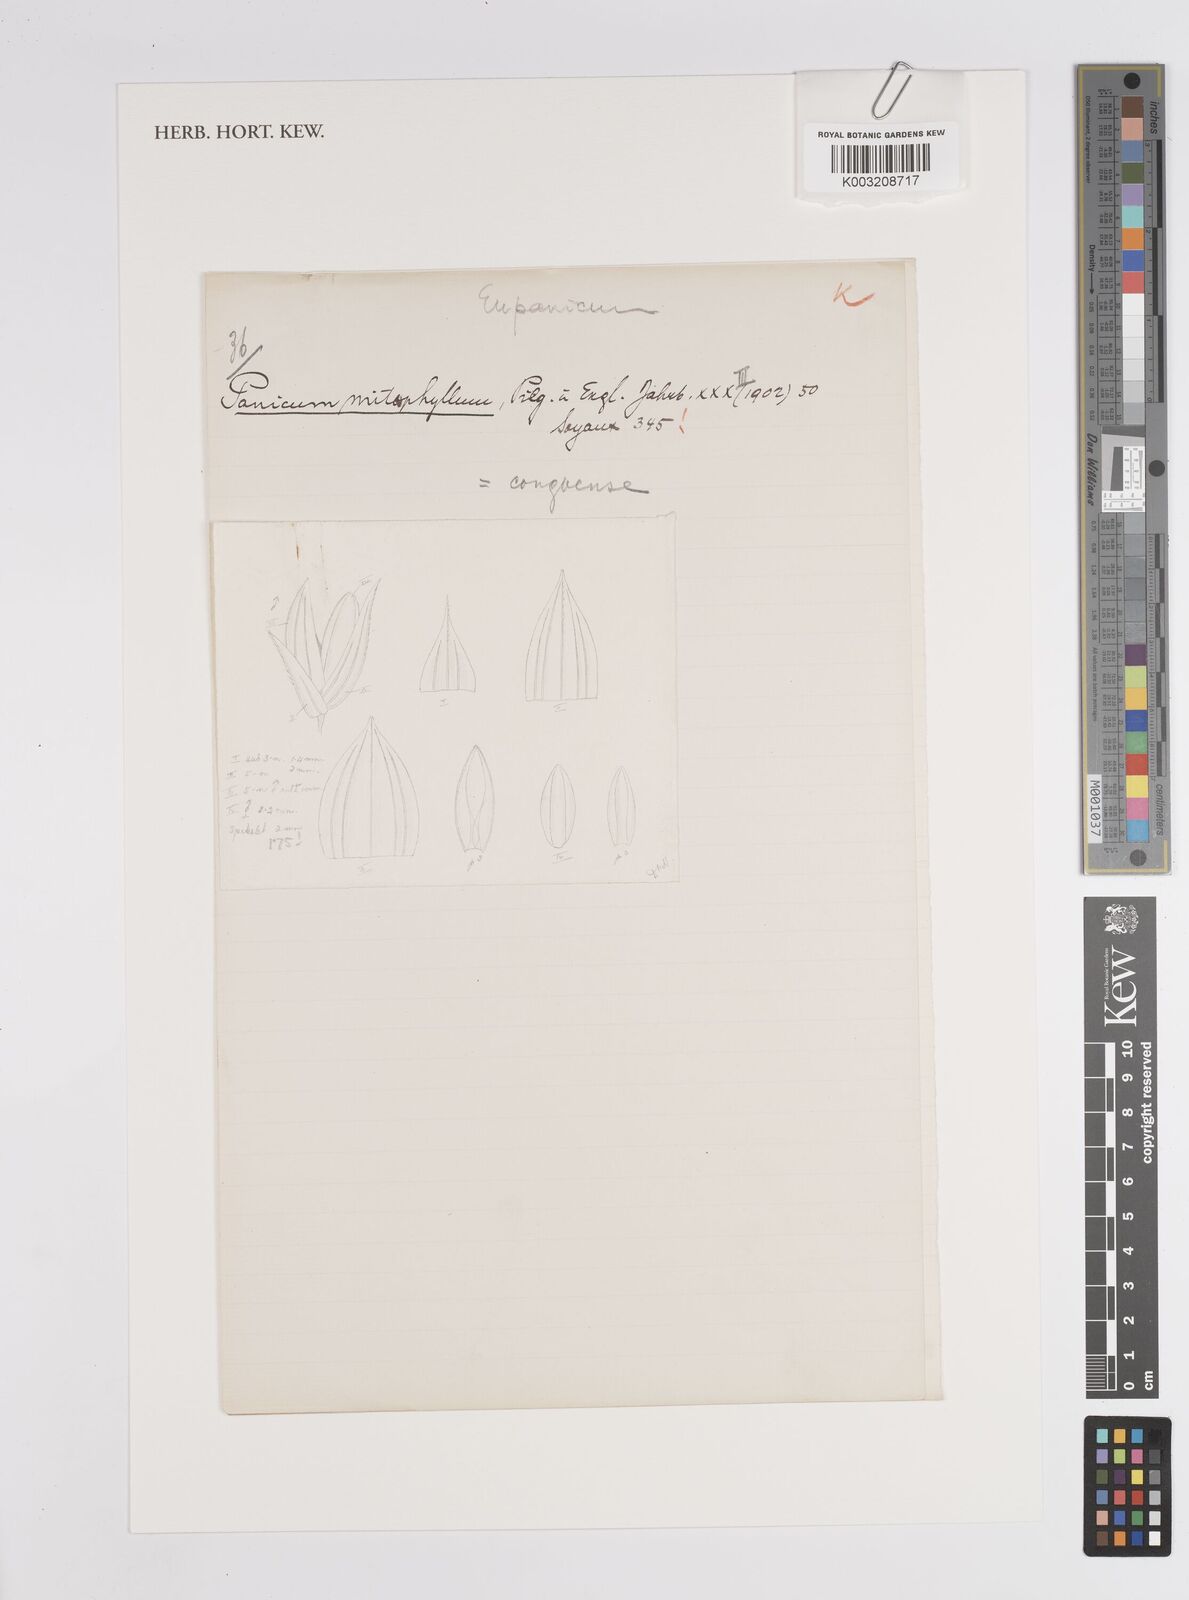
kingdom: Plantae
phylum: Tracheophyta
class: Liliopsida
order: Poales
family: Poaceae
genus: Panicum
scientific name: Panicum congoense
